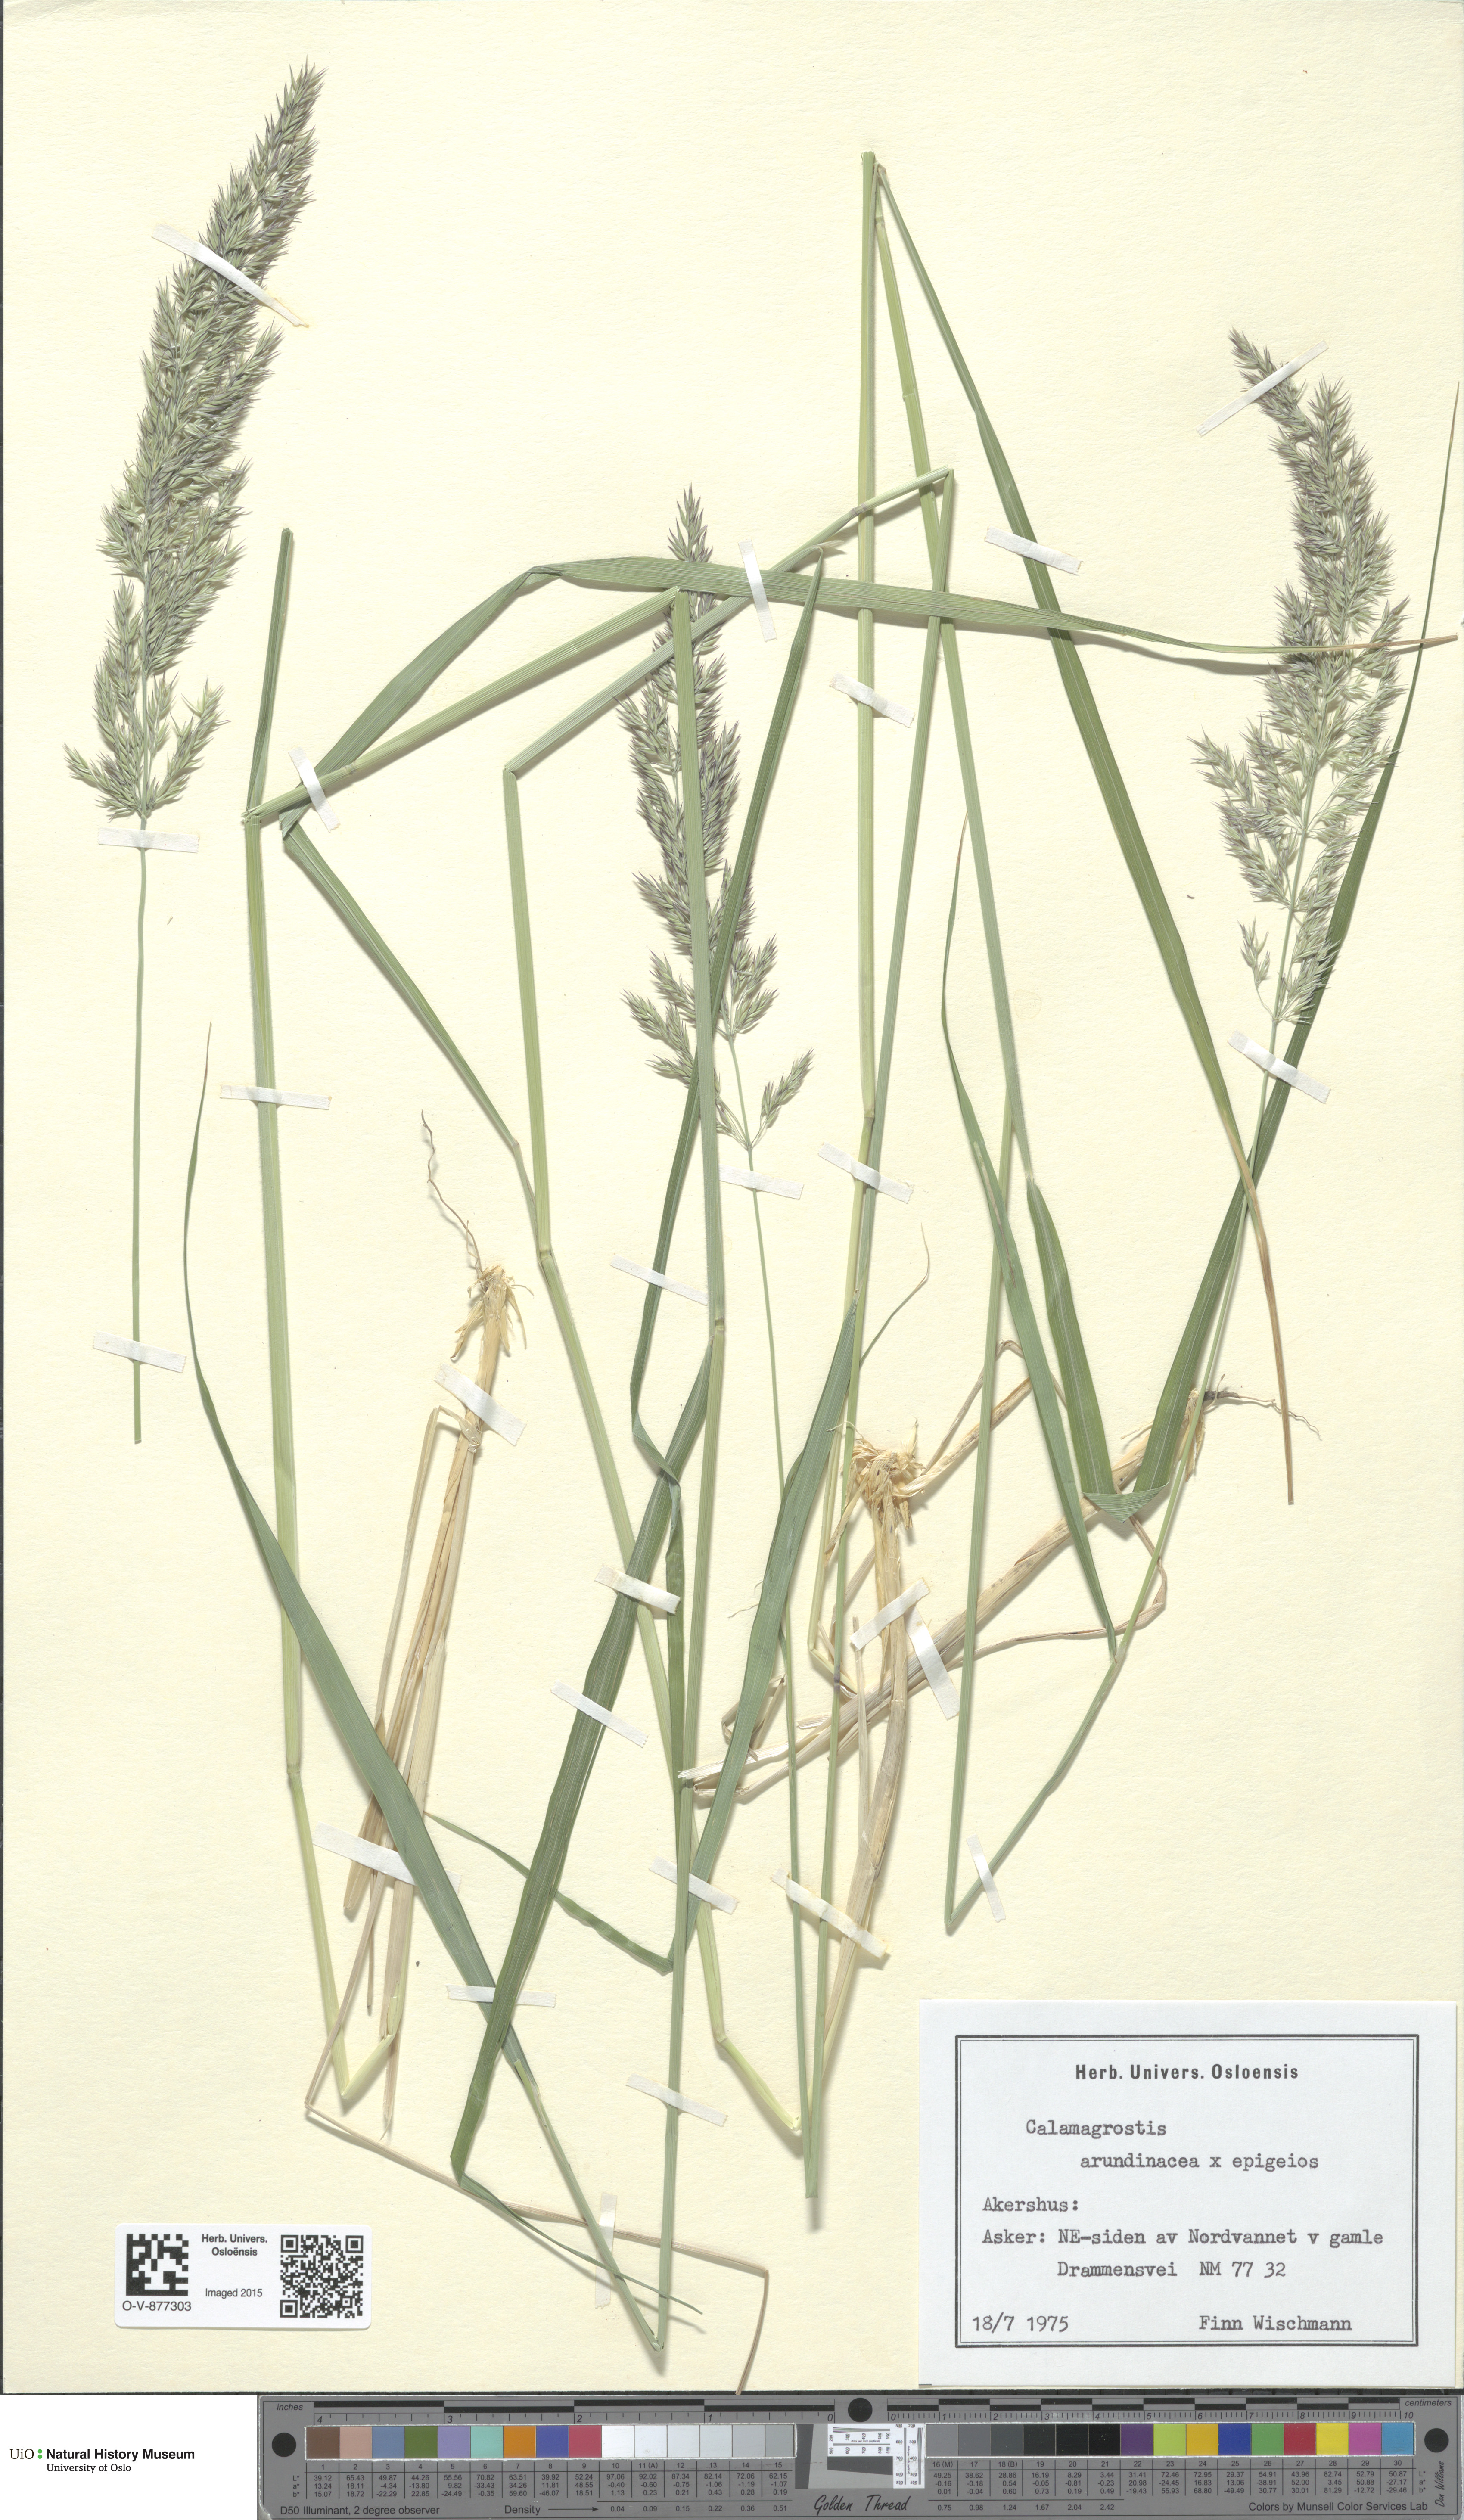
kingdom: Plantae
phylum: Tracheophyta
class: Liliopsida
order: Poales
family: Poaceae
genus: Calamagrostis
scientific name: Calamagrostis
